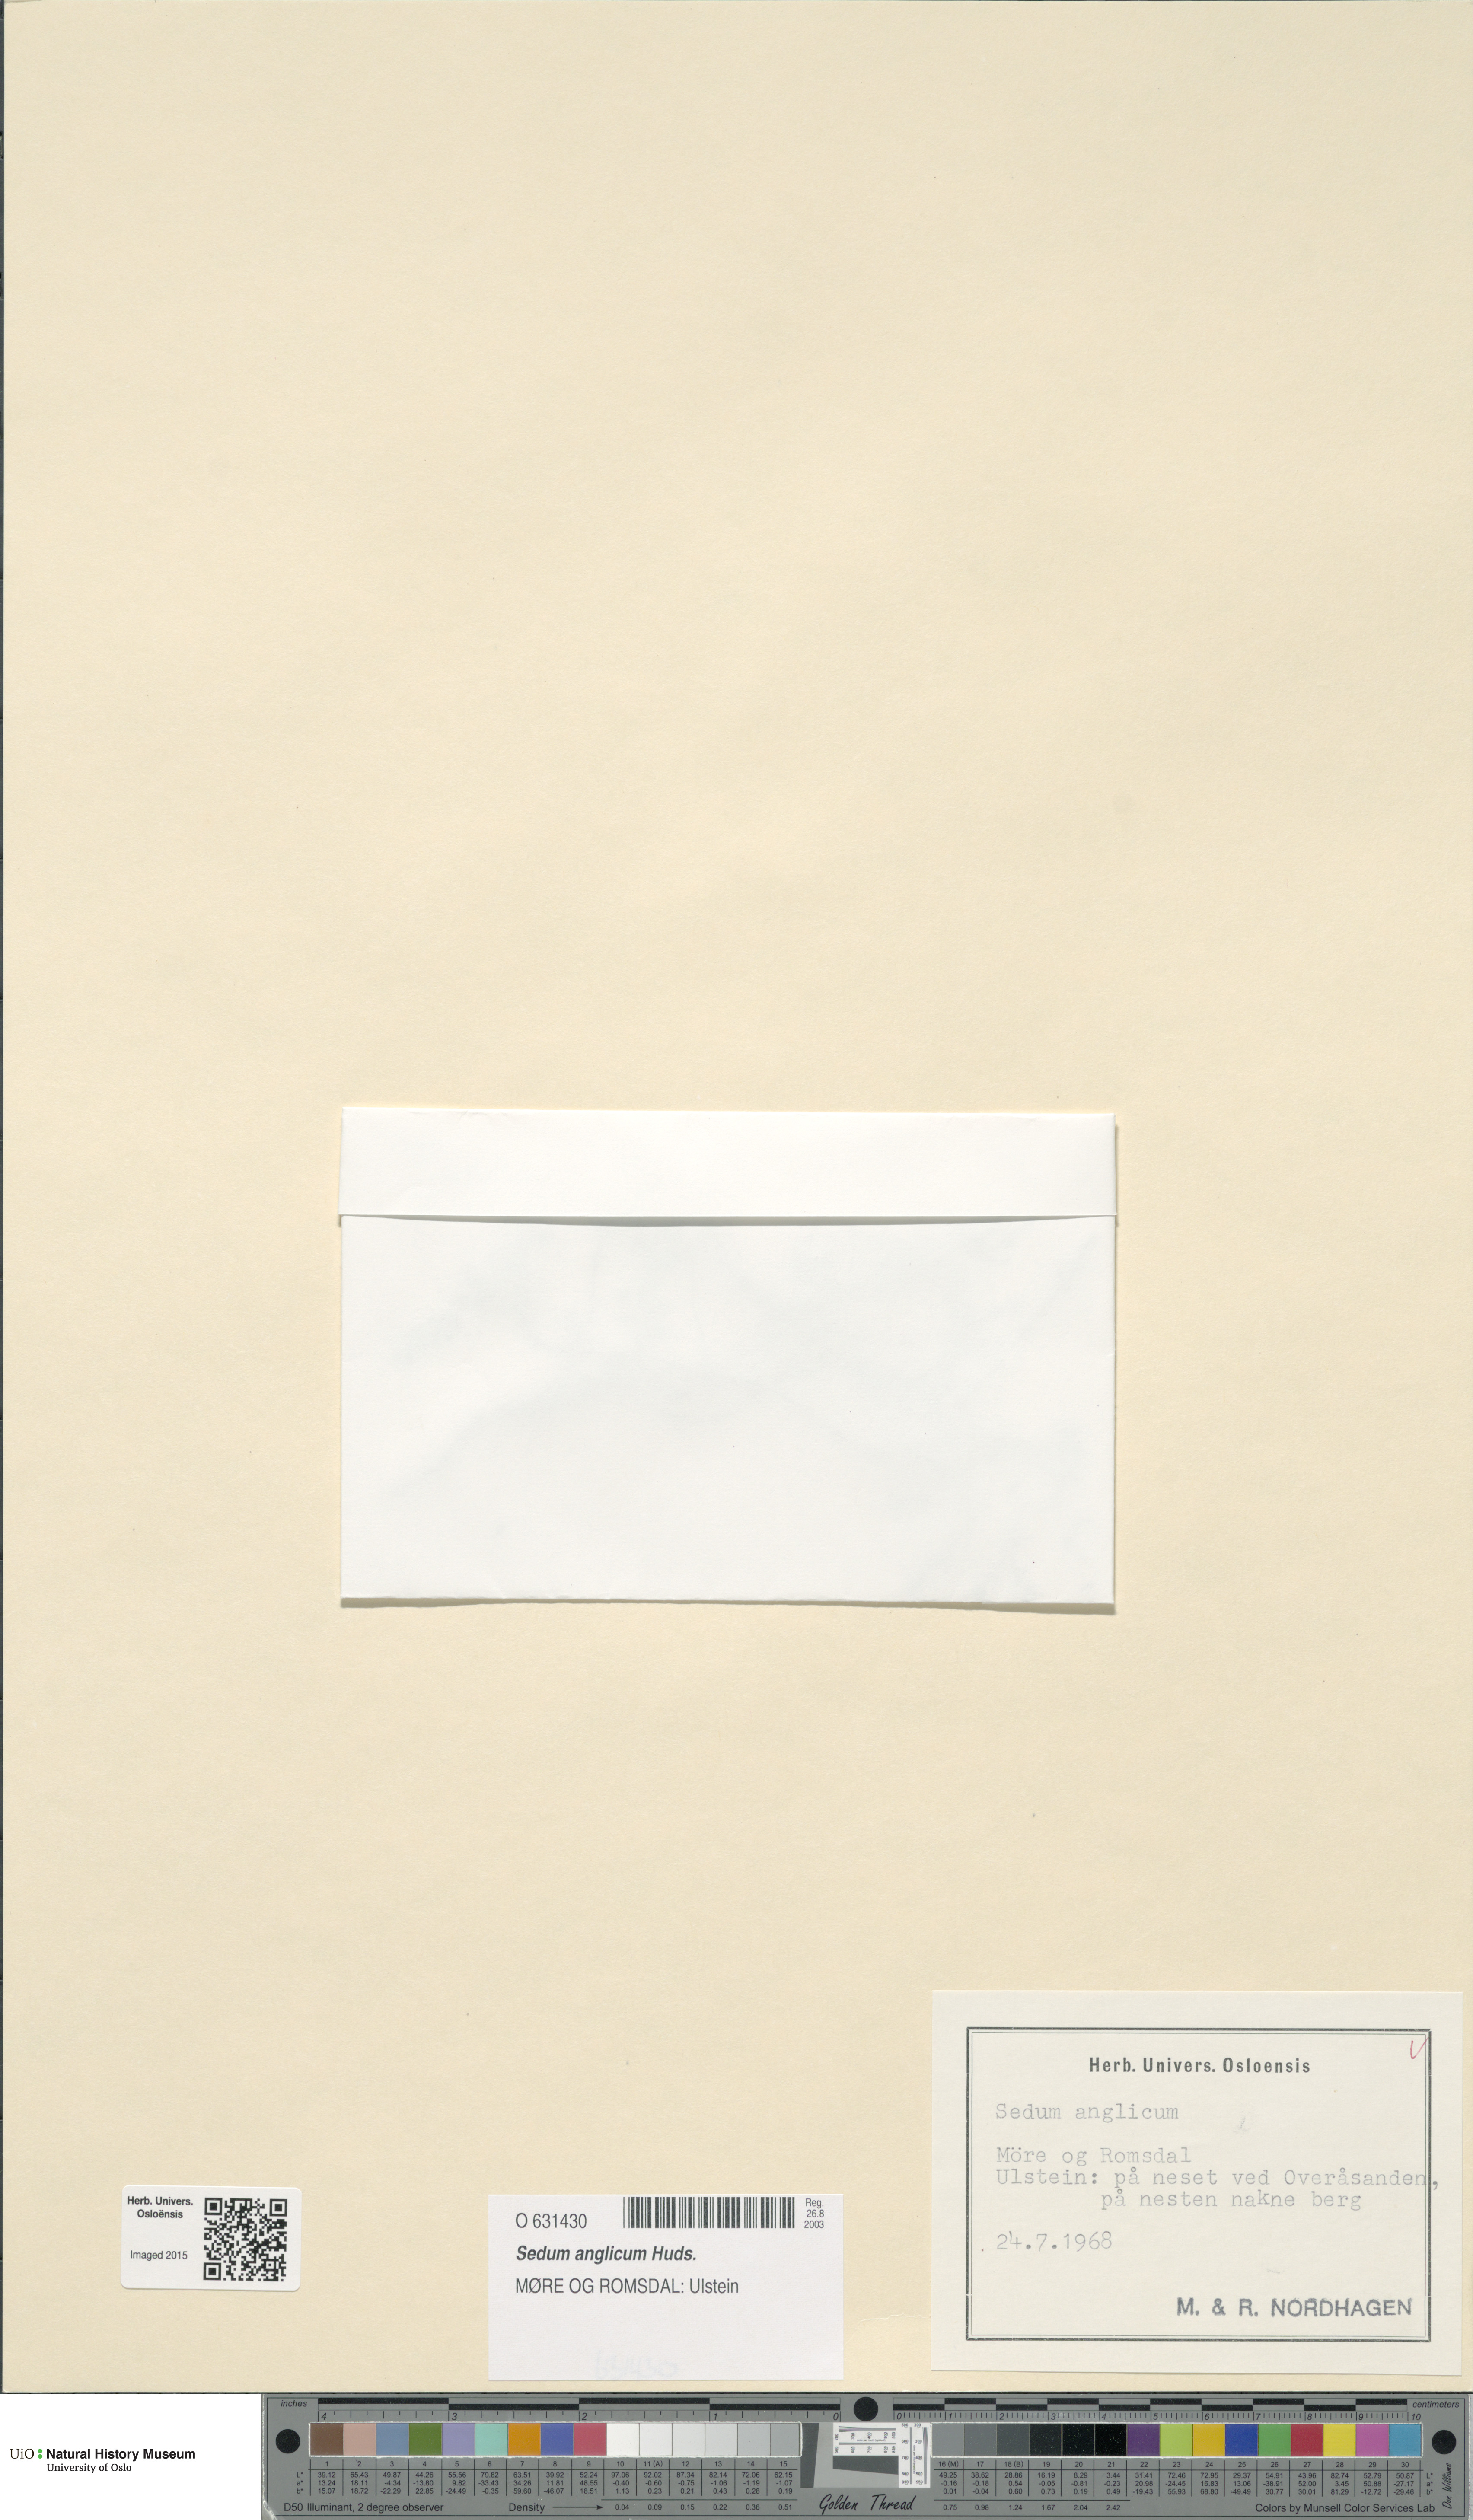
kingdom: Plantae
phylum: Tracheophyta
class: Magnoliopsida
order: Saxifragales
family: Crassulaceae
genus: Sedum
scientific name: Sedum anglicum
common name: English stonecrop
